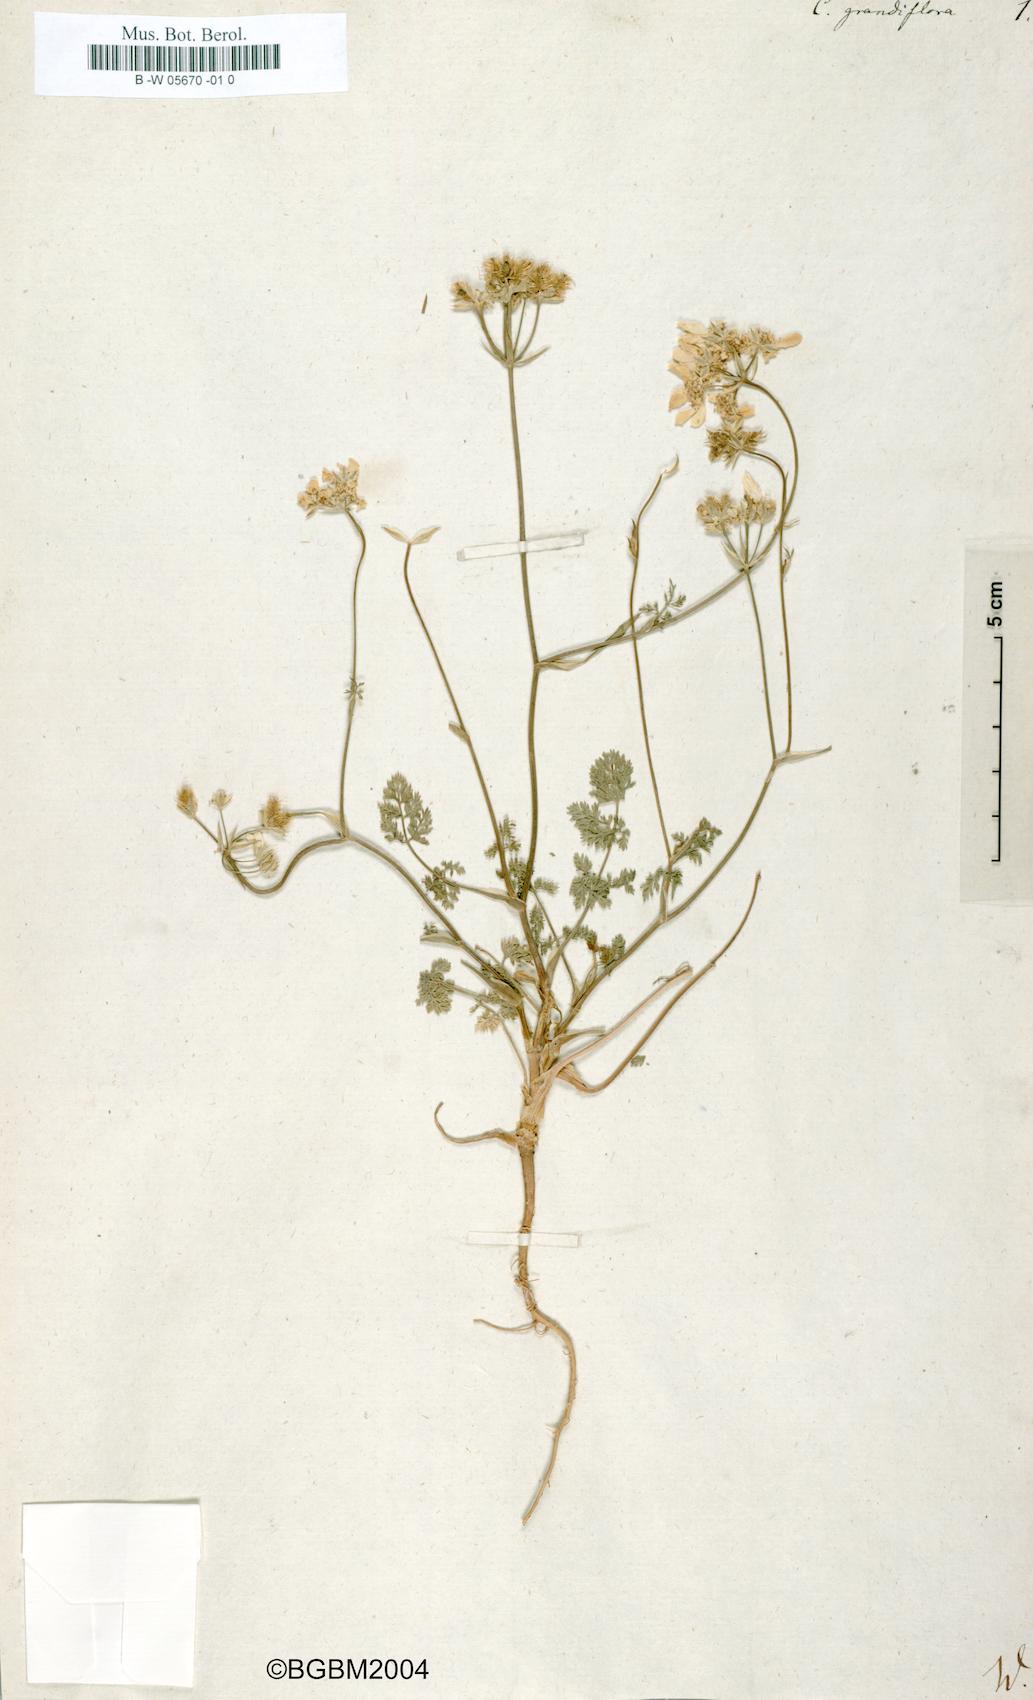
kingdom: Plantae
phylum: Tracheophyta
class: Magnoliopsida
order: Apiales
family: Apiaceae
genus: Caucalis
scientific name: Caucalis grandiflora
